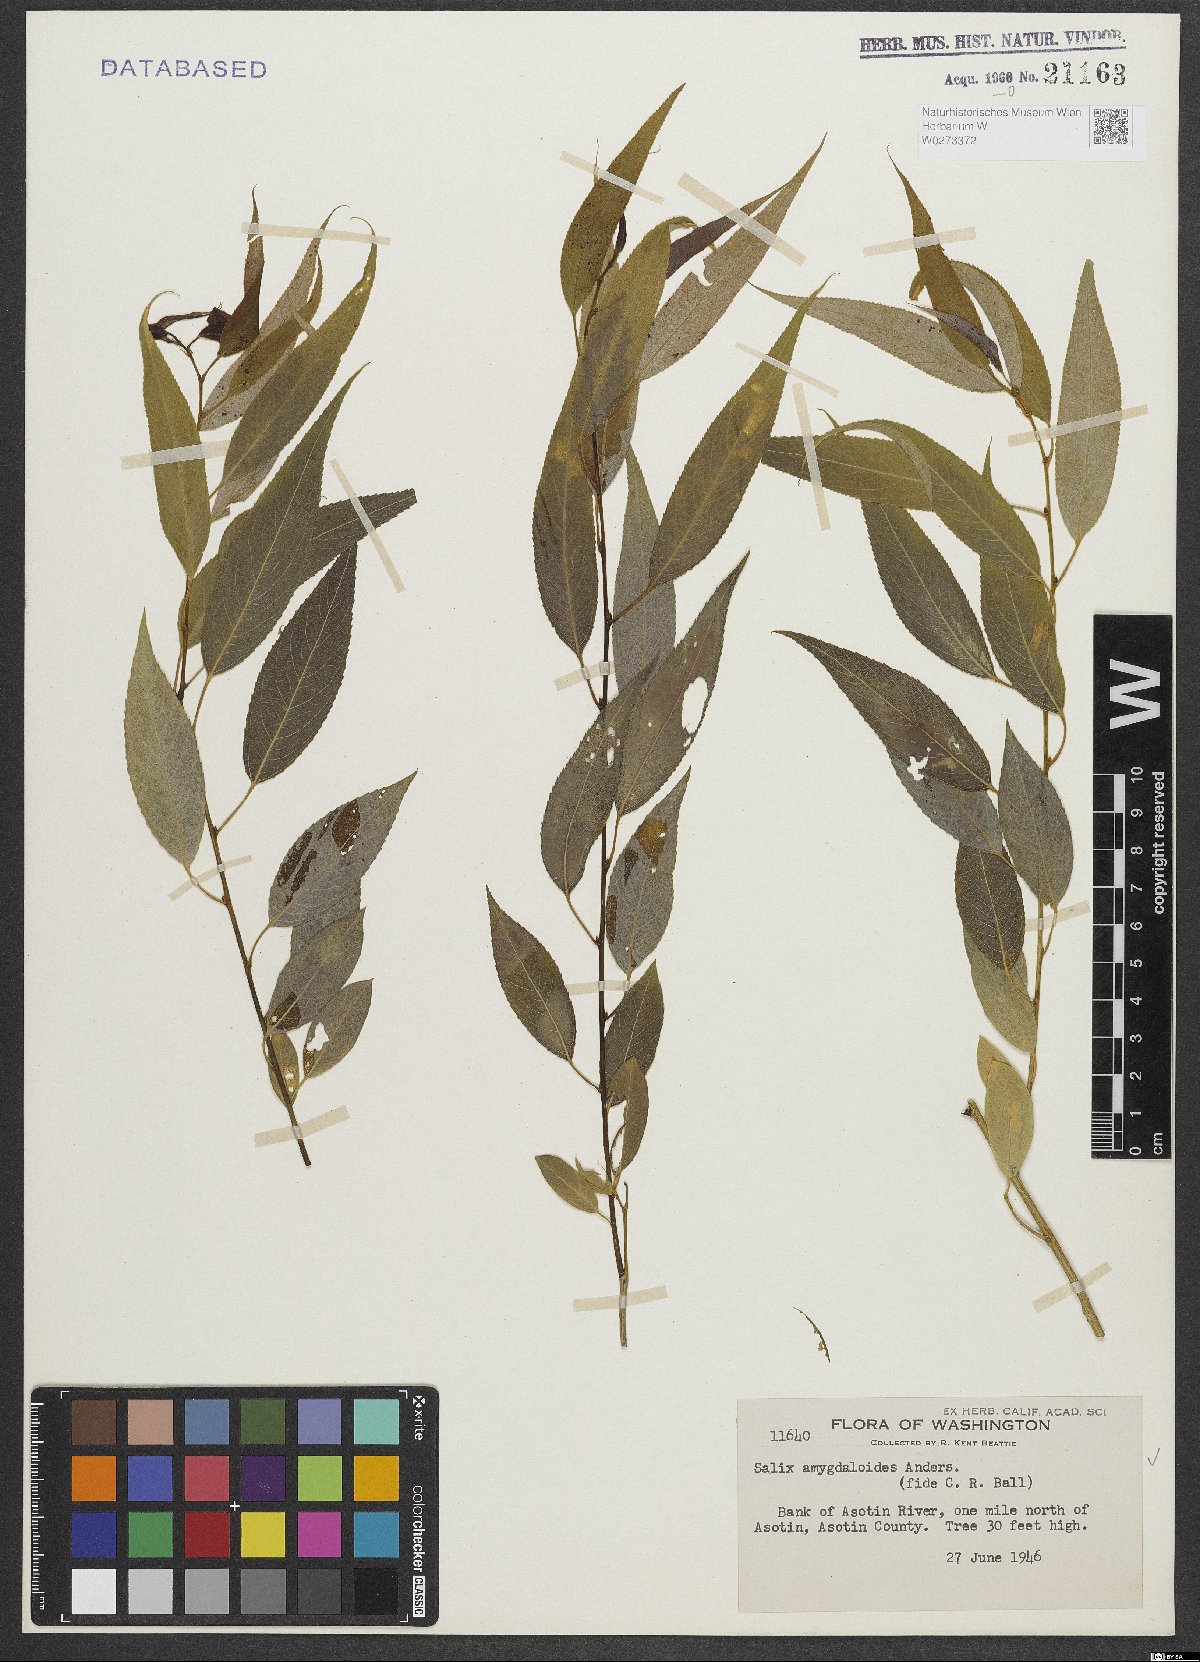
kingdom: Plantae
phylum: Tracheophyta
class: Magnoliopsida
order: Malpighiales
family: Salicaceae
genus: Salix
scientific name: Salix amygdaloides
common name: Peach leaf willow
